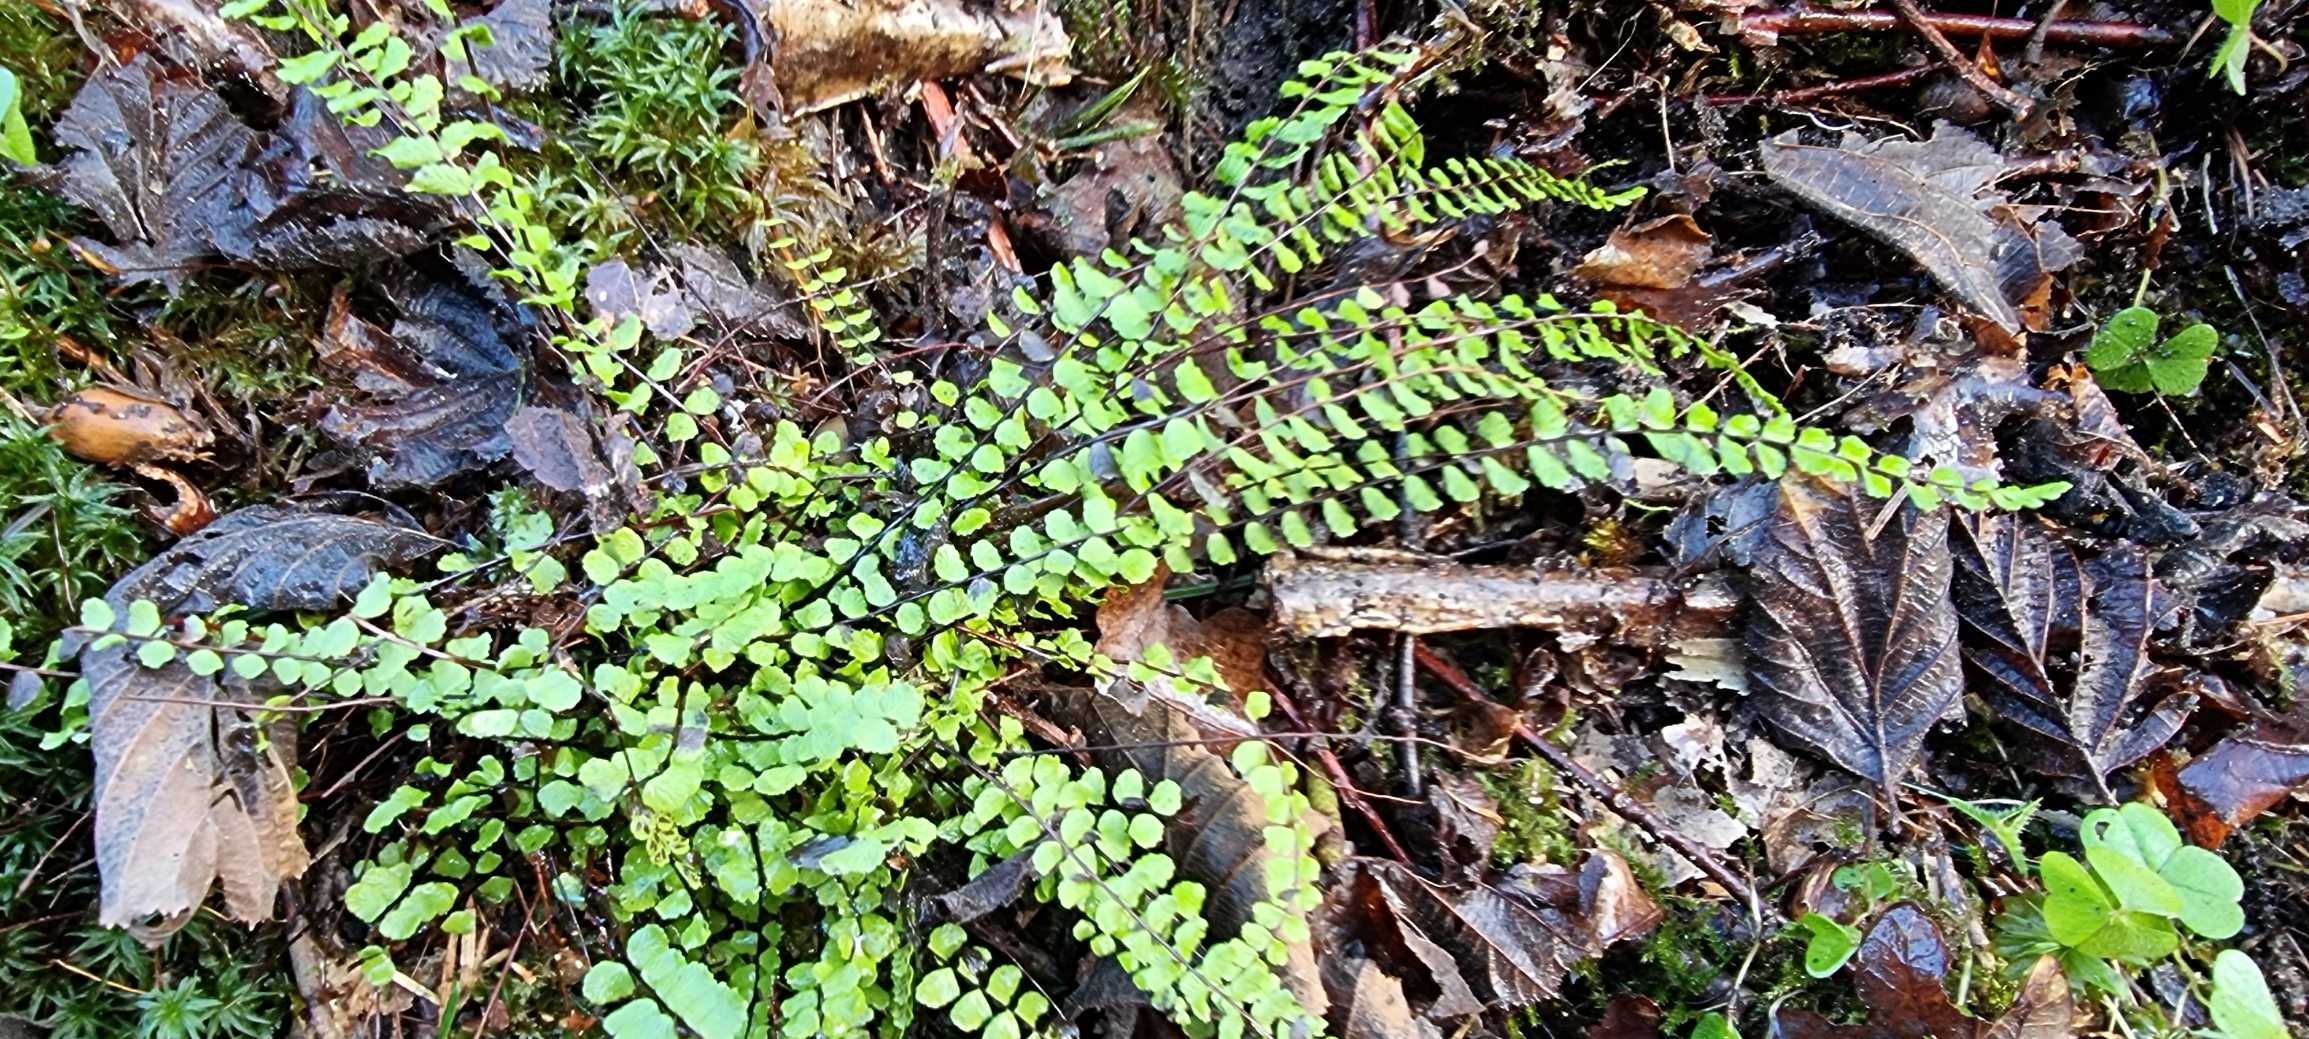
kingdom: Plantae
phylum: Tracheophyta
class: Polypodiopsida
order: Polypodiales
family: Aspleniaceae
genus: Asplenium
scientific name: Asplenium trichomanes
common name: Rundfinnet radeløv
